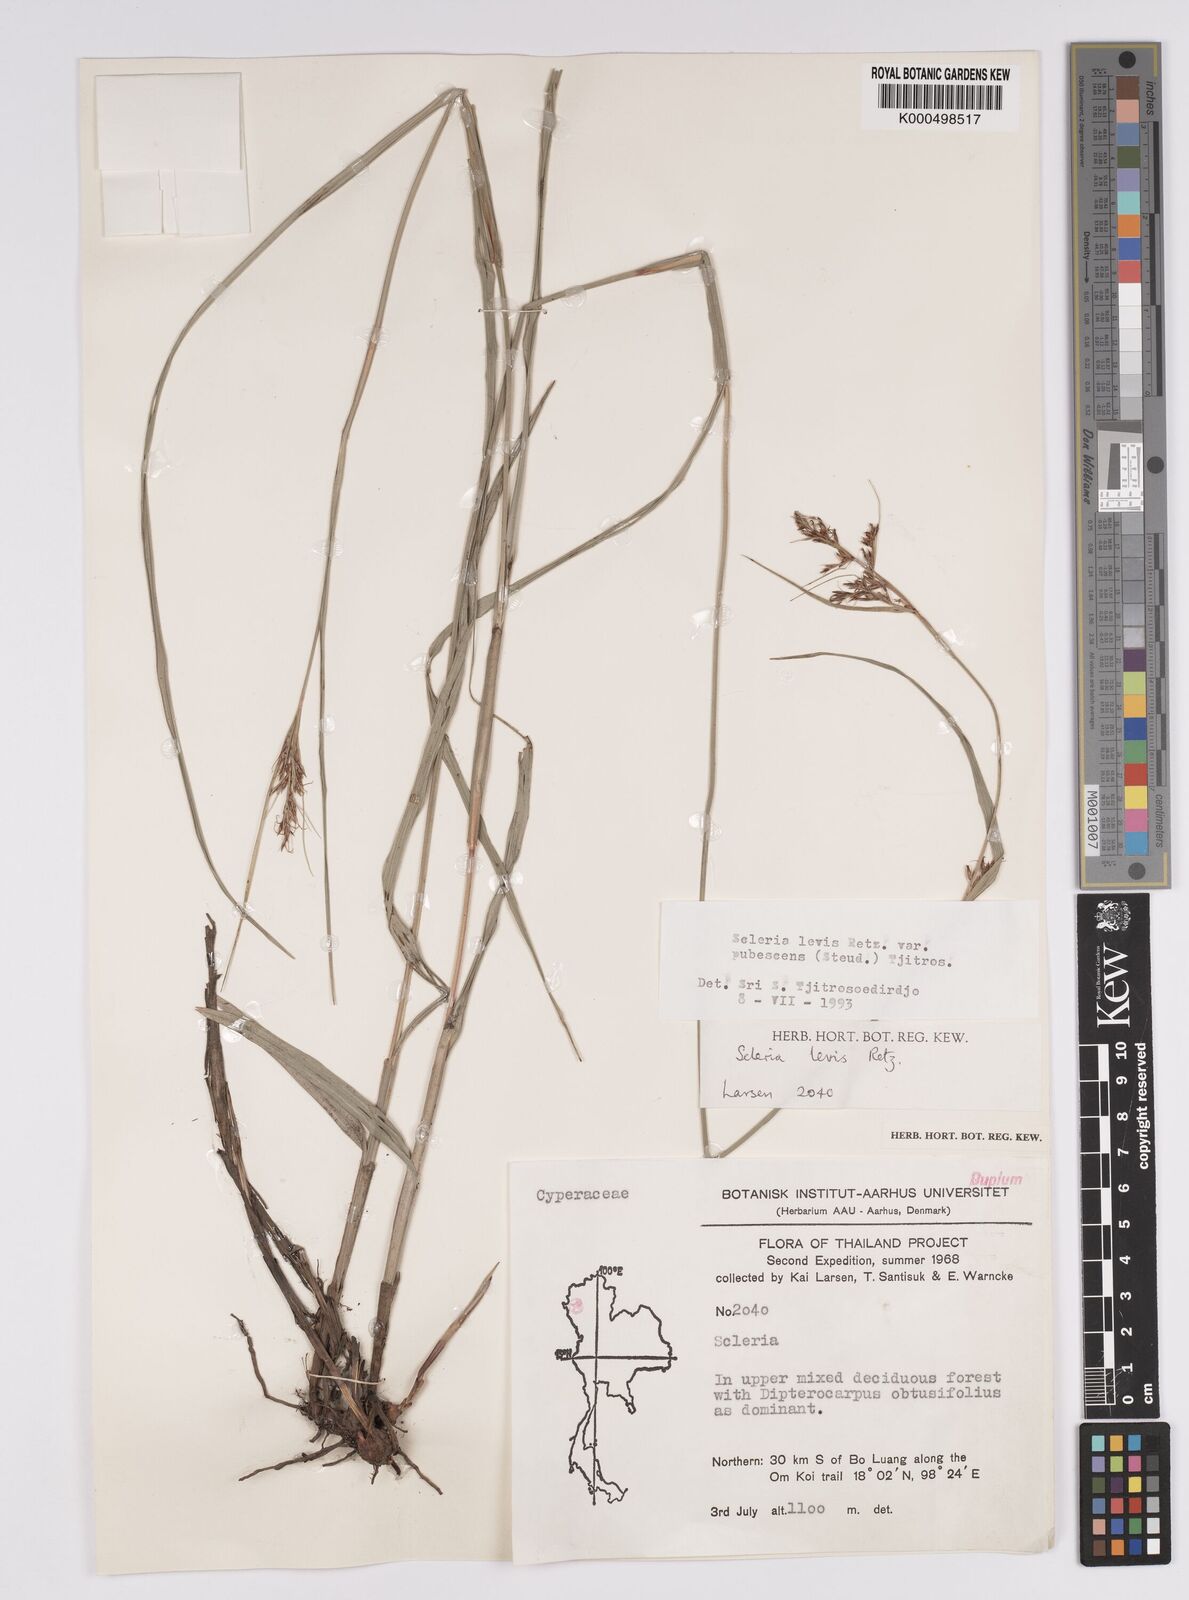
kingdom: Plantae
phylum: Tracheophyta
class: Liliopsida
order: Poales
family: Cyperaceae
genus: Scleria
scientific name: Scleria levis
